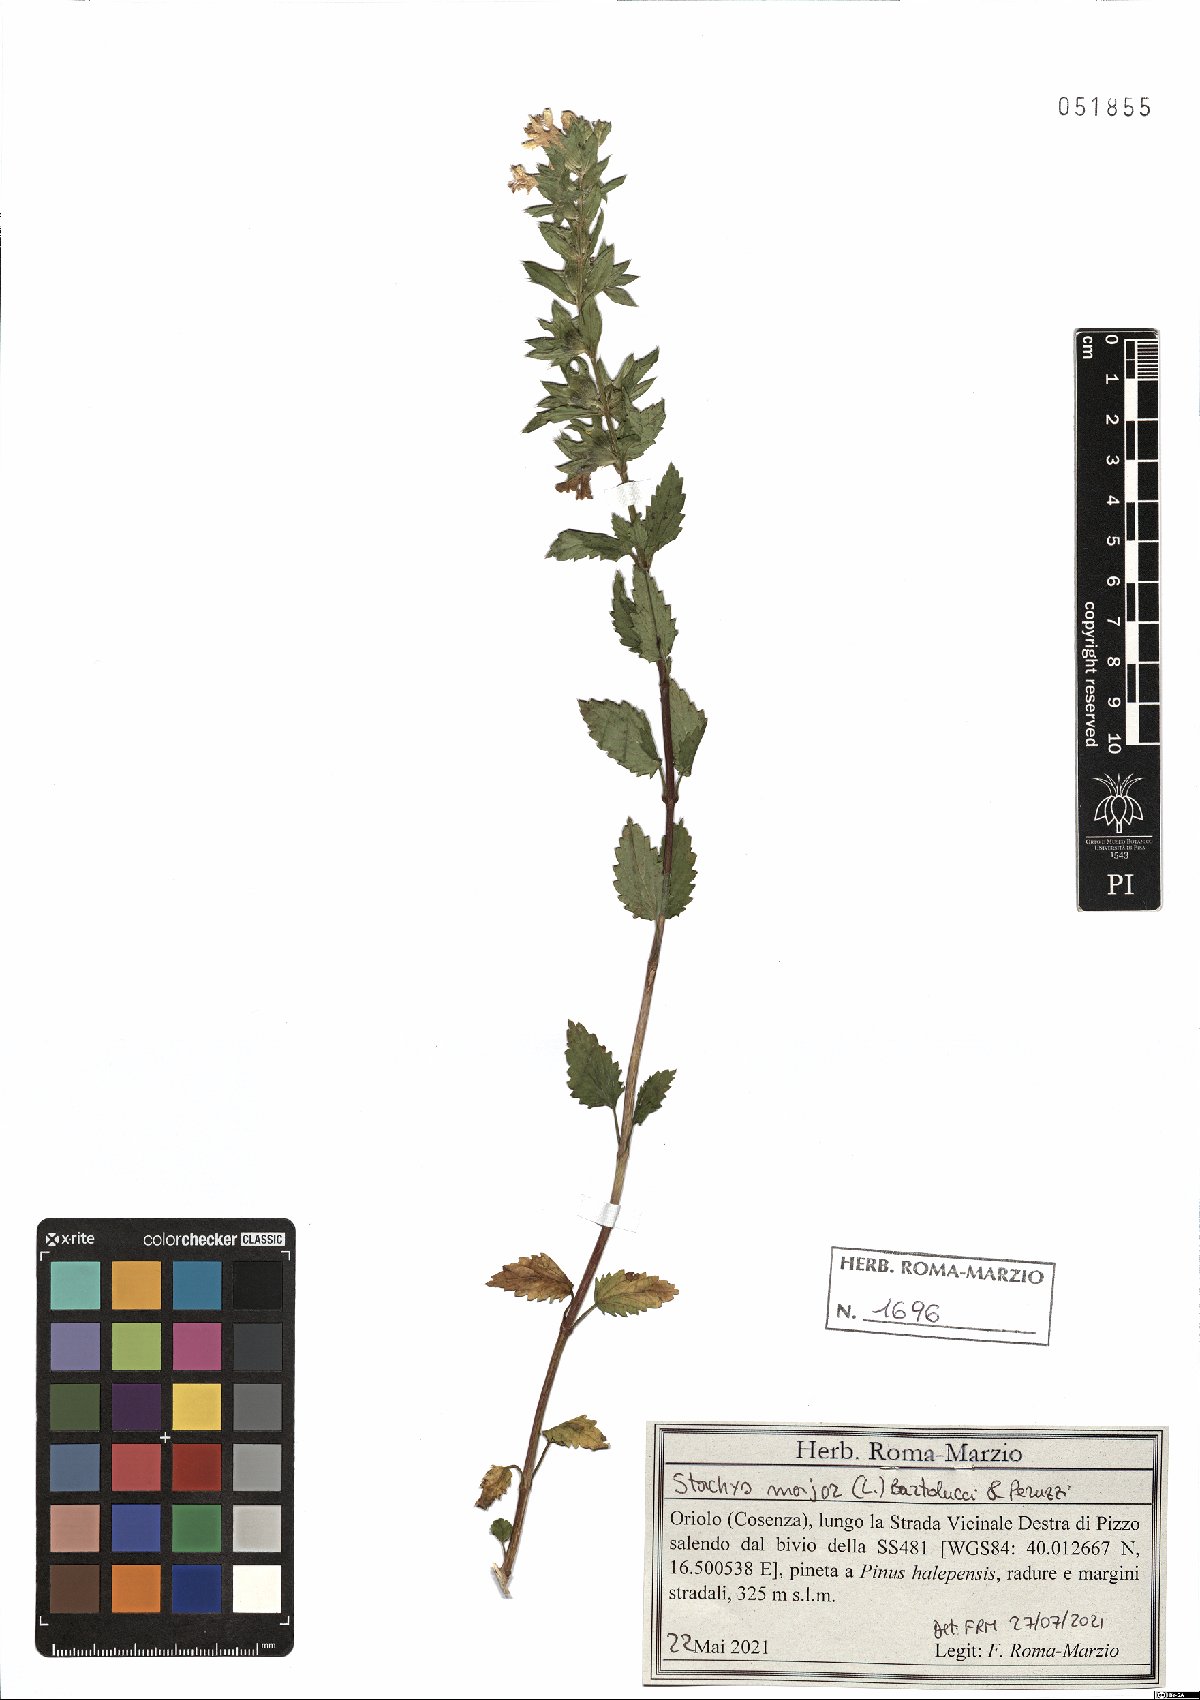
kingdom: Plantae
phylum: Tracheophyta
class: Magnoliopsida
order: Lamiales
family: Lamiaceae
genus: Prasium
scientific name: Prasium majus
